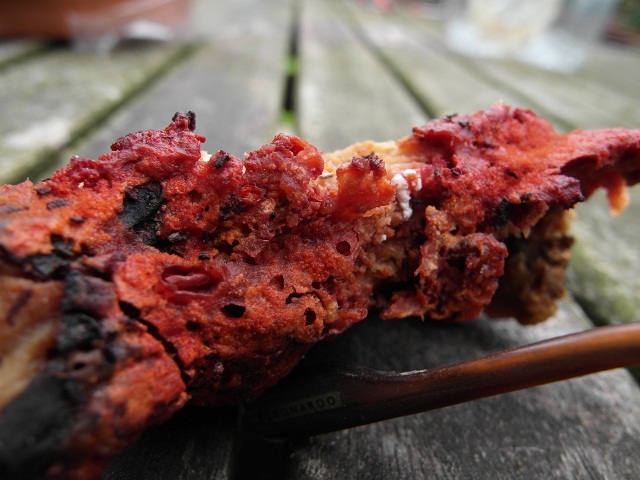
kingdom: Fungi
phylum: Ascomycota
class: Sordariomycetes
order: Hypocreales
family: Hypocreaceae
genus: Hypomyces
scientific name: Hypomyces aurantius
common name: almindelig snylteskorpe
